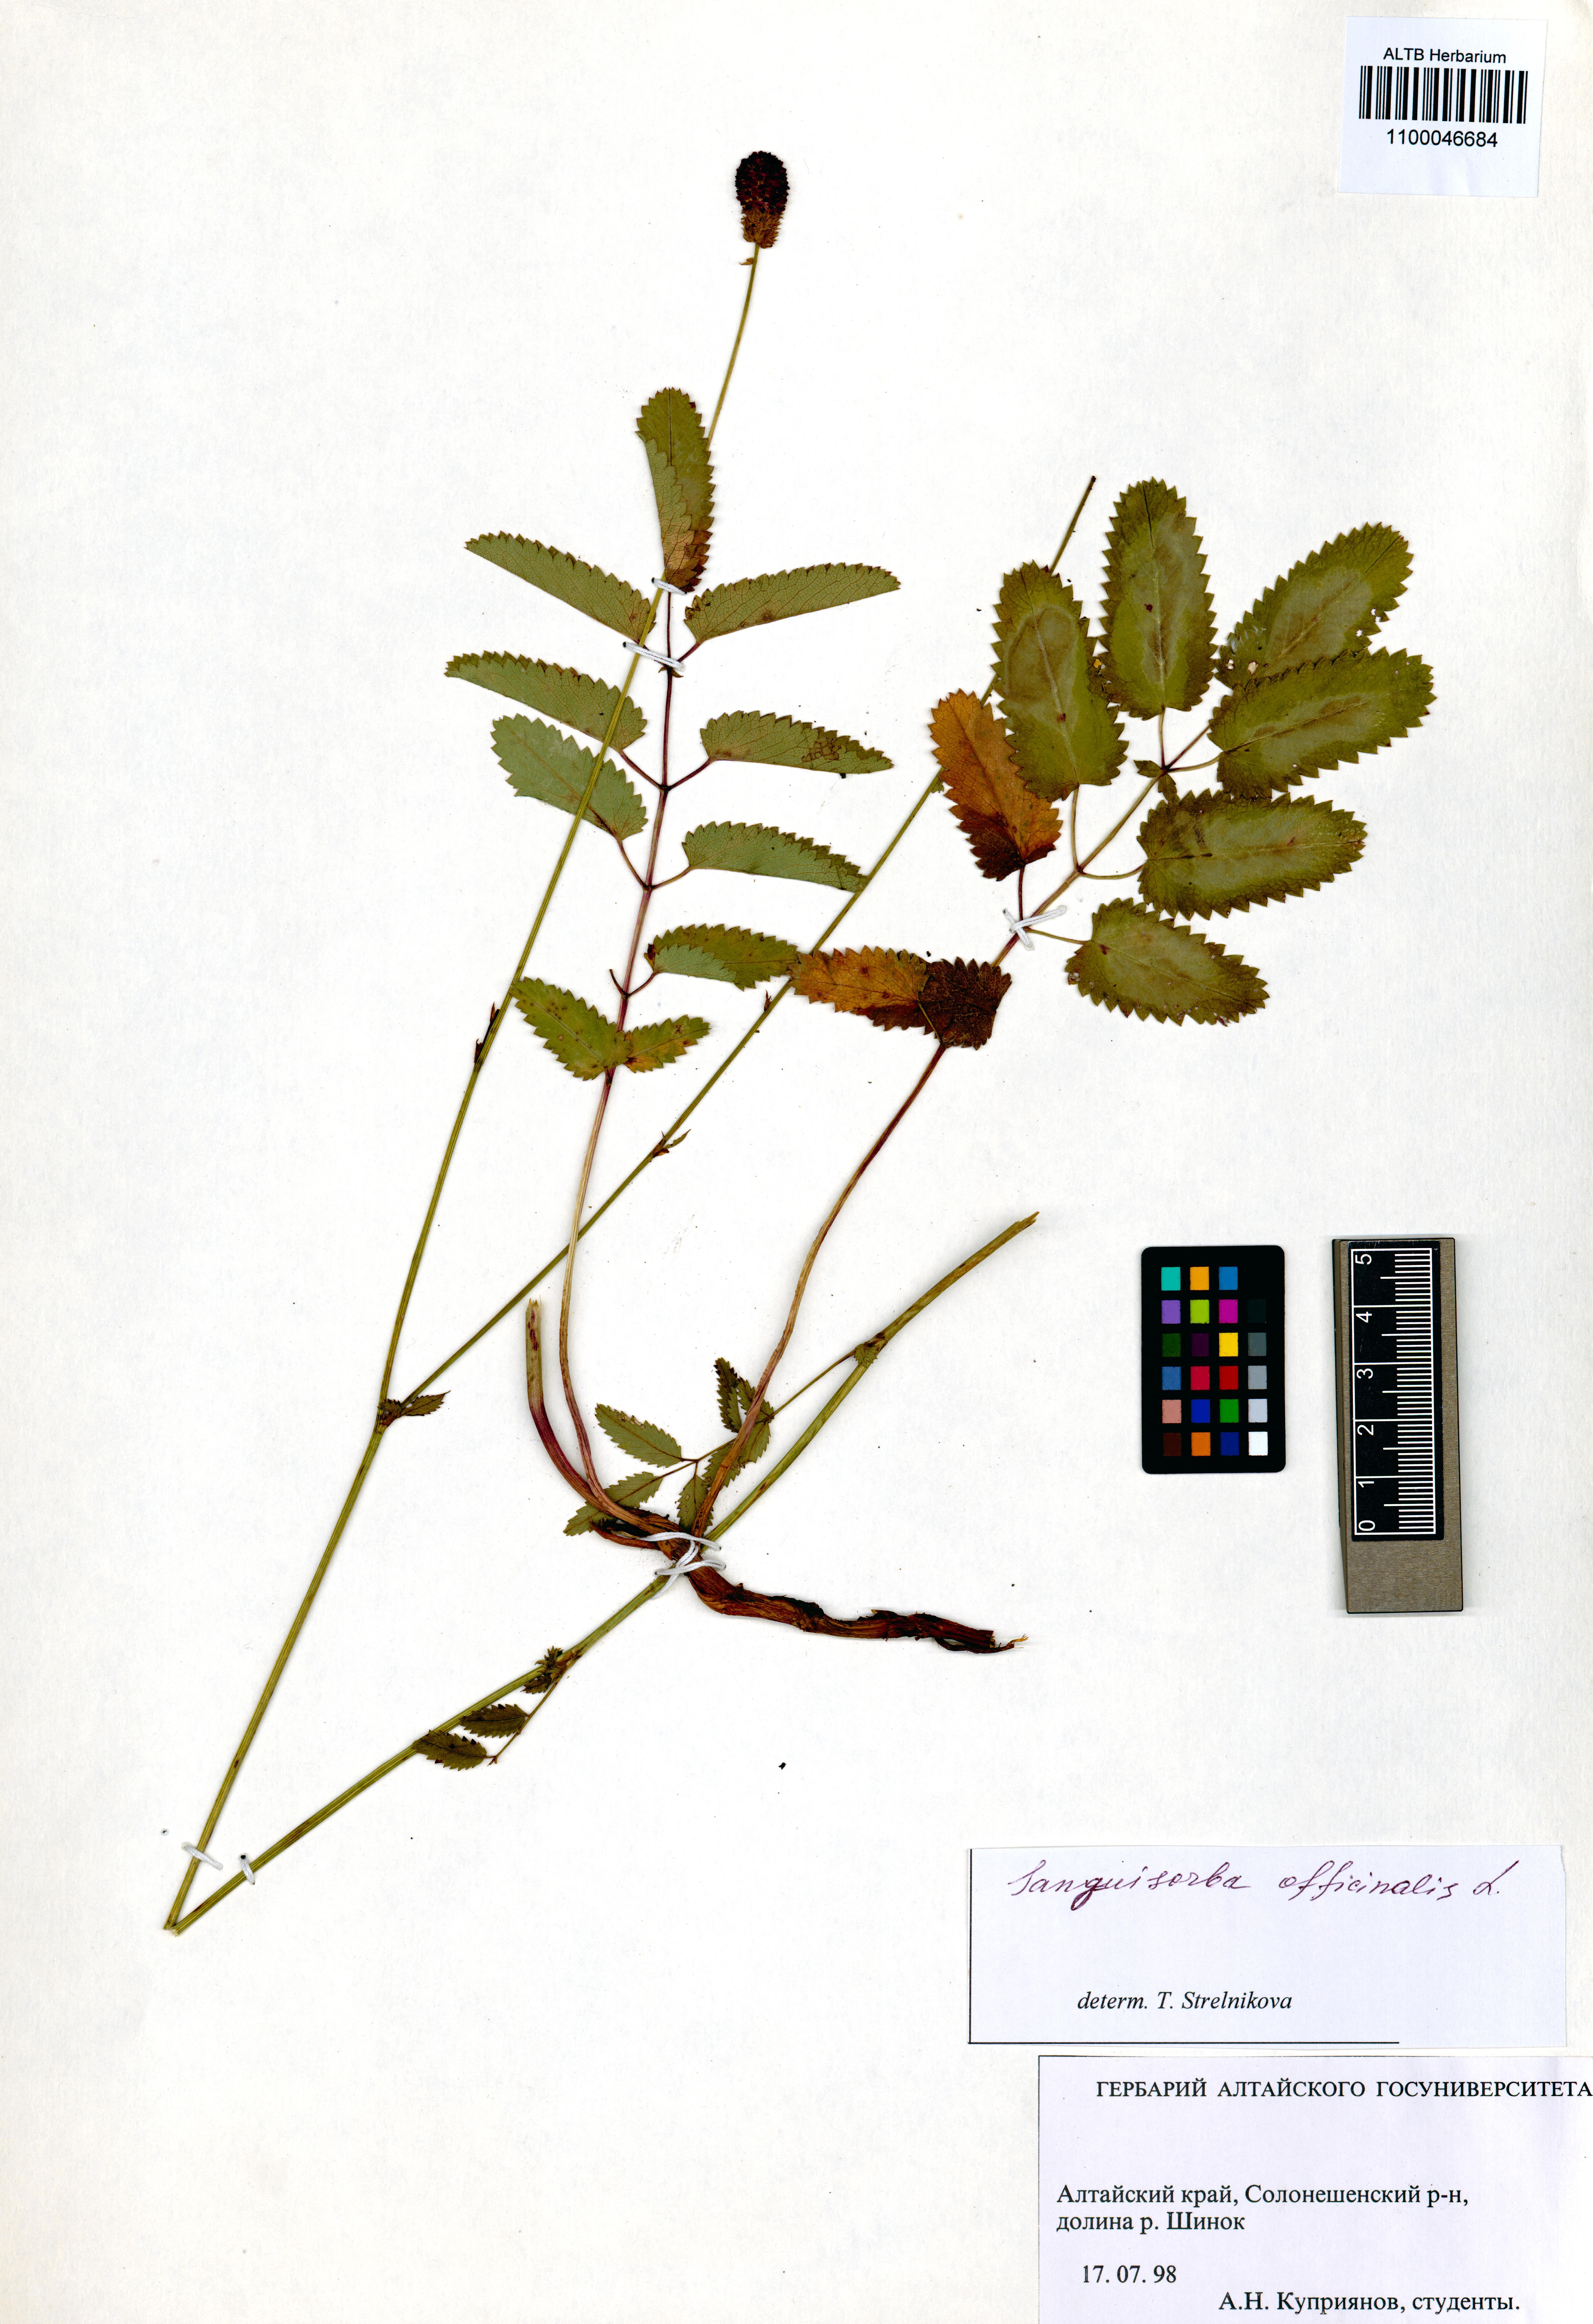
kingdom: Plantae
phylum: Tracheophyta
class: Magnoliopsida
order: Rosales
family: Rosaceae
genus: Sanguisorba
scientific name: Sanguisorba officinalis
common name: Great burnet
